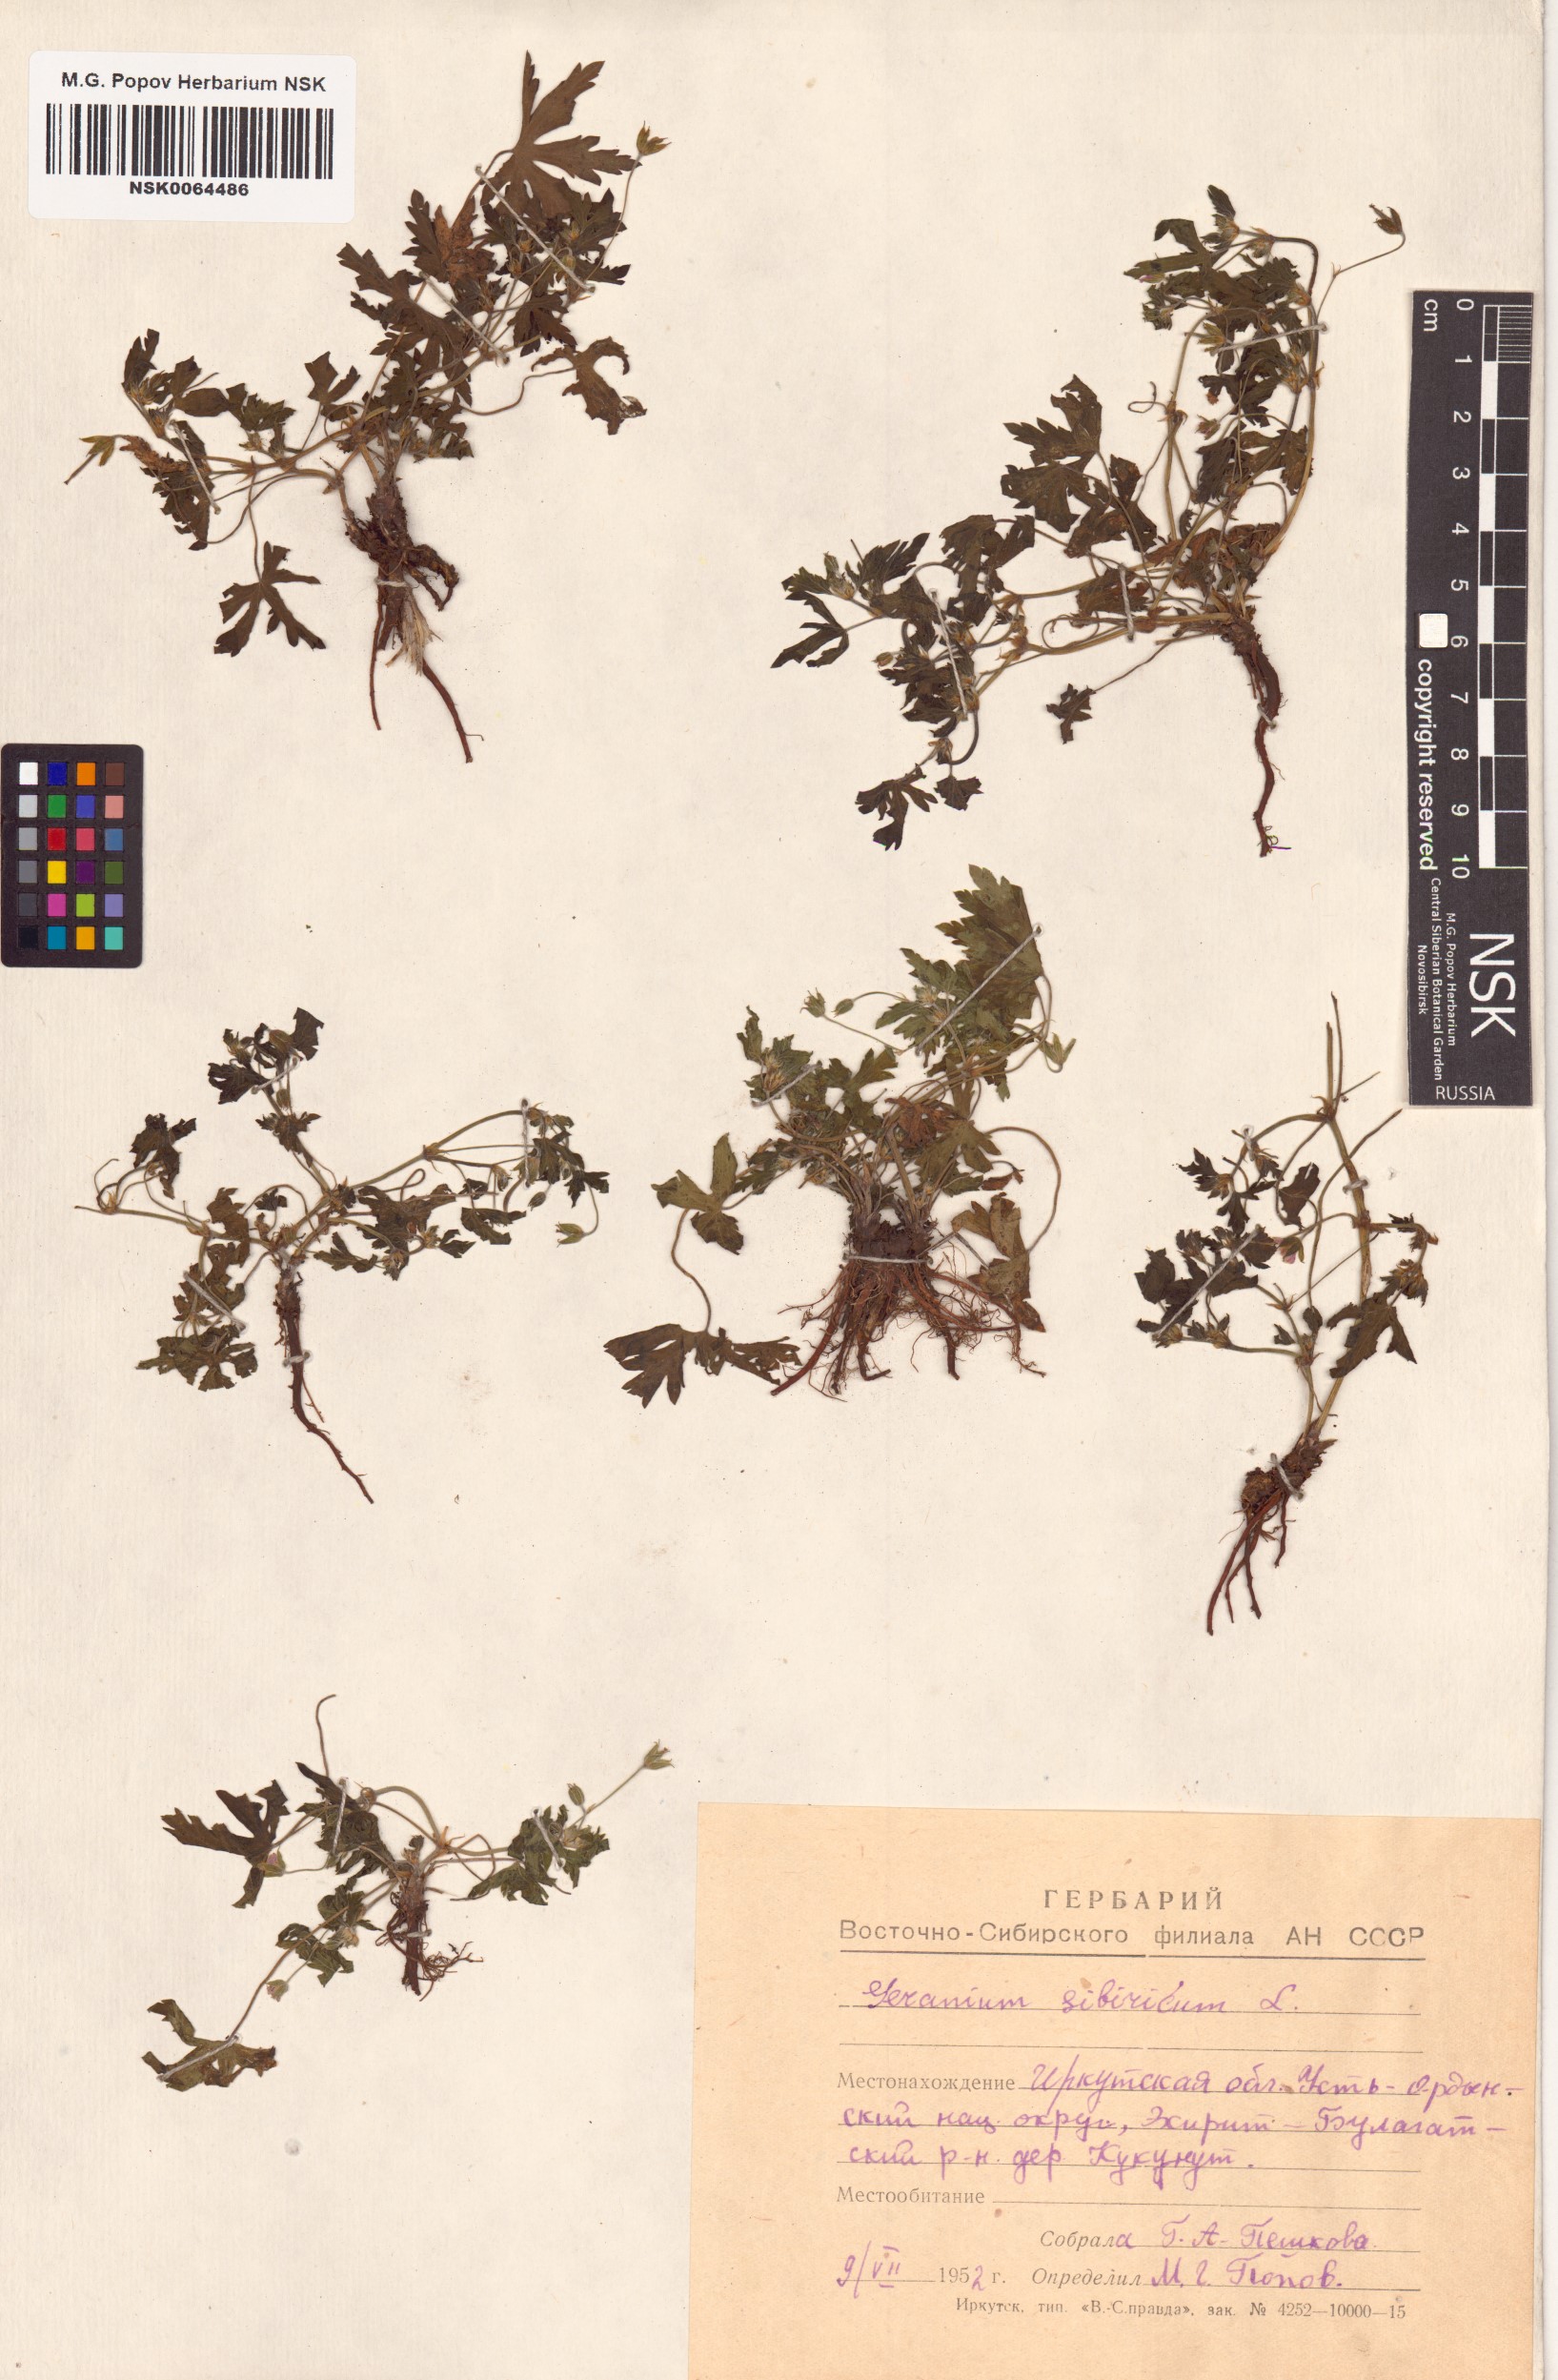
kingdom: Plantae
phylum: Tracheophyta
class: Magnoliopsida
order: Geraniales
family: Geraniaceae
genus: Geranium
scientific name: Geranium sibiricum
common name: Siberian crane's-bill
